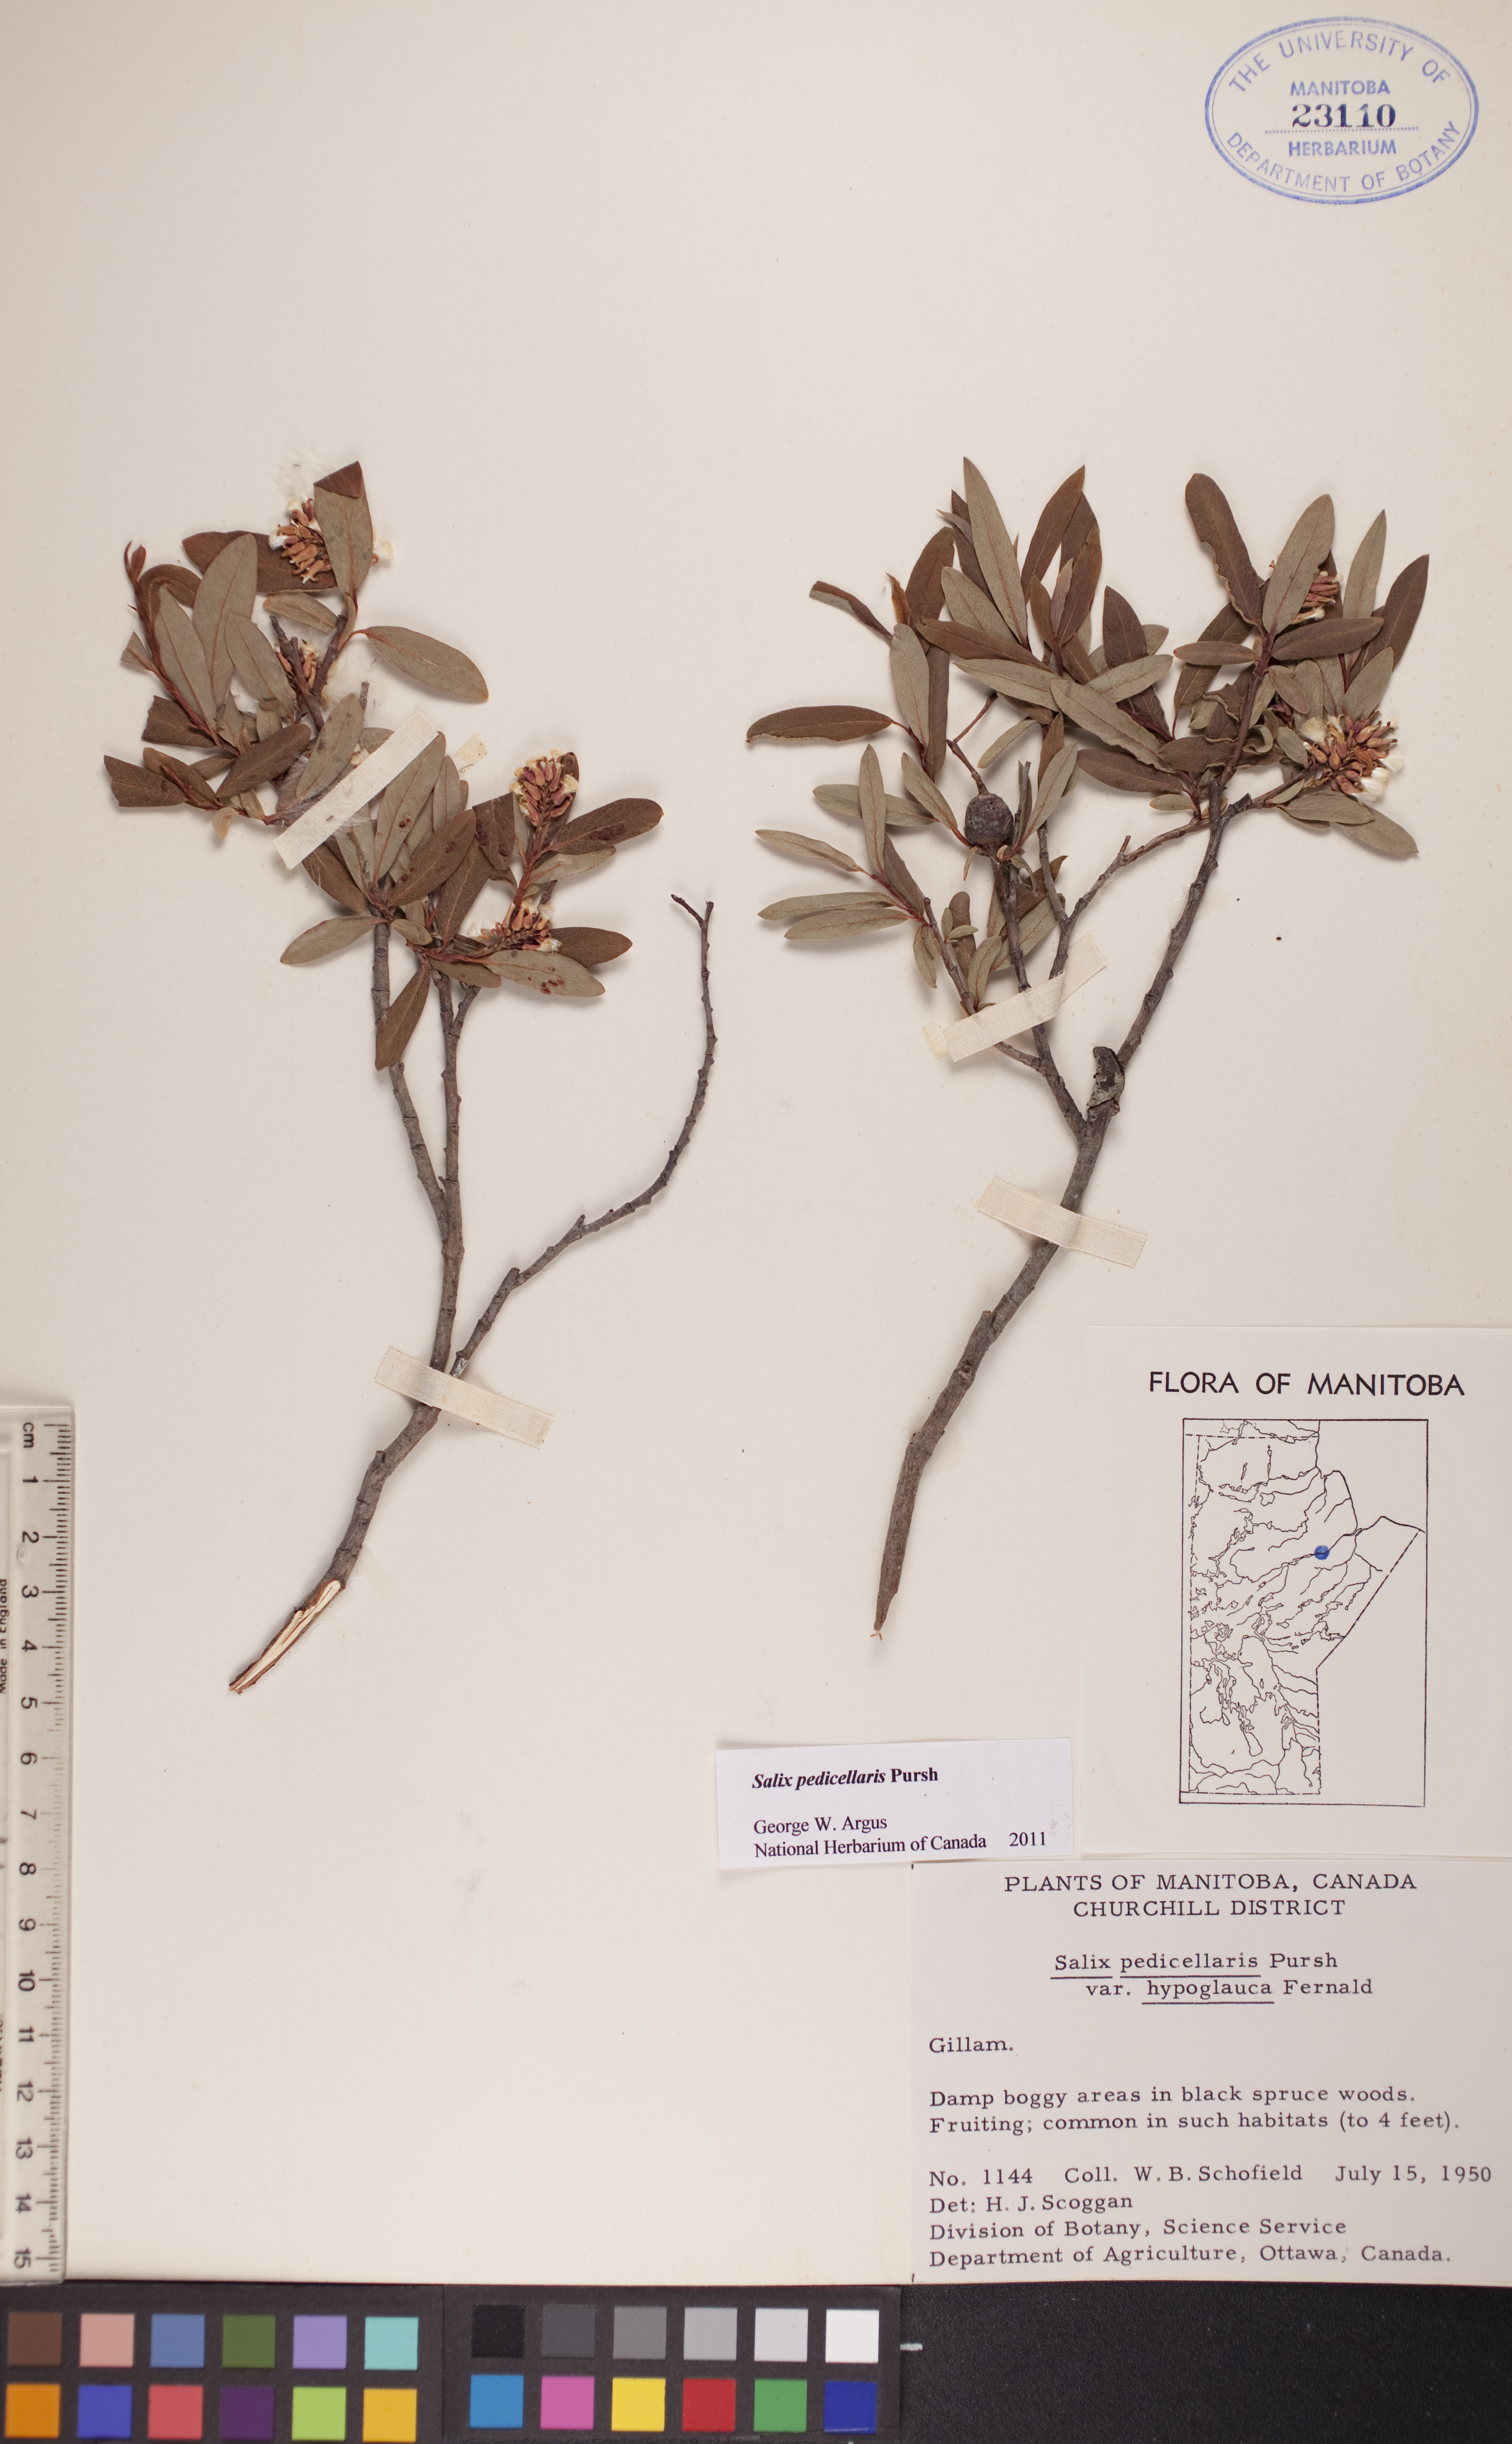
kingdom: Plantae
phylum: Tracheophyta
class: Magnoliopsida
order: Malpighiales
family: Salicaceae
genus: Salix
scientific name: Salix pedicellaris
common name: Bog willow
